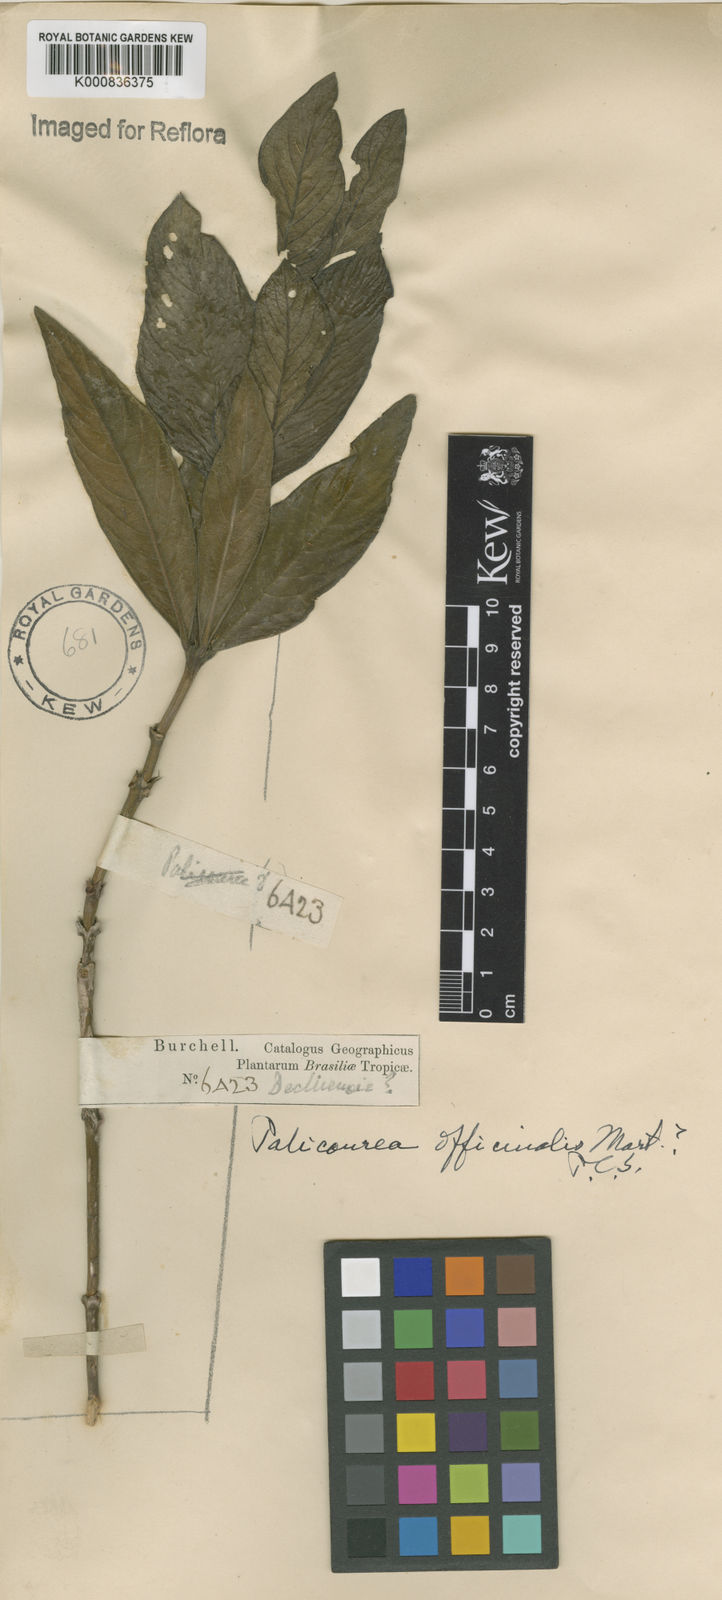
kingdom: Plantae
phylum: Tracheophyta
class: Magnoliopsida
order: Gentianales
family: Rubiaceae
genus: Palicourea
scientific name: Palicourea officinalis
